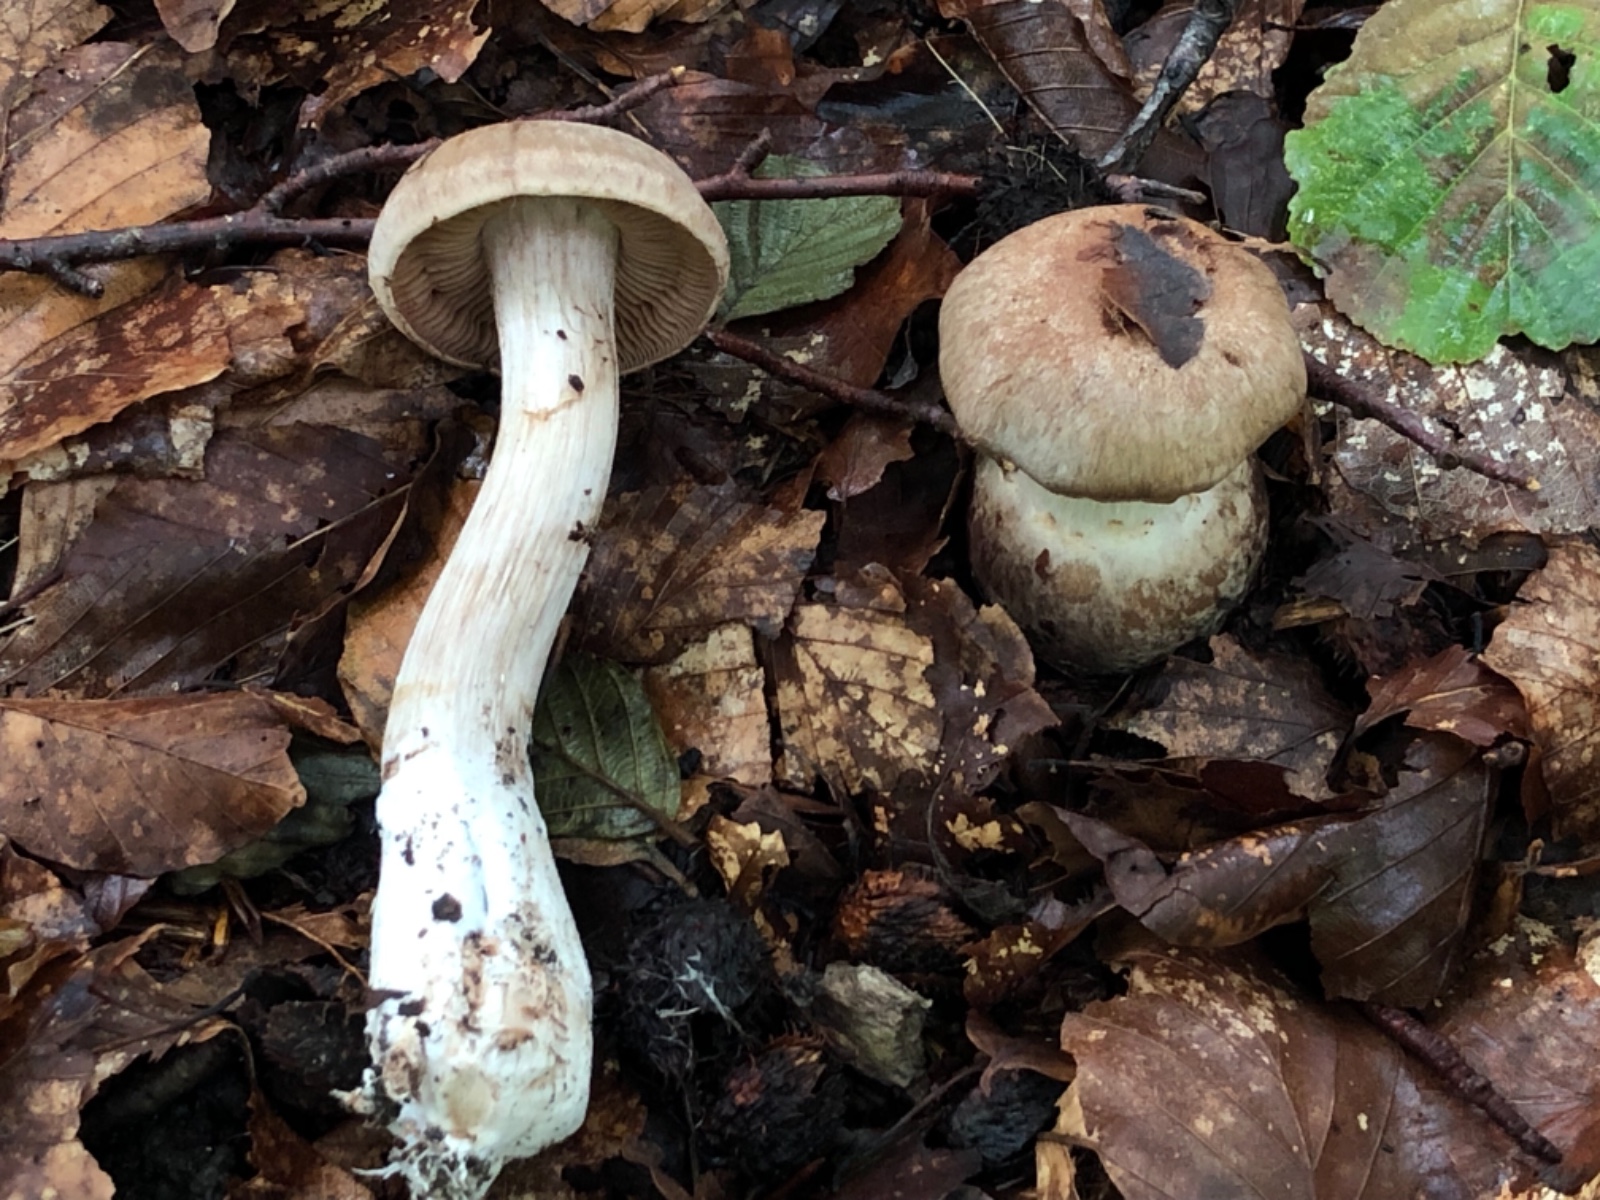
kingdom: Fungi
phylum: Basidiomycota
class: Agaricomycetes
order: Agaricales
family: Cortinariaceae
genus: Cortinarius
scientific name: Cortinarius
